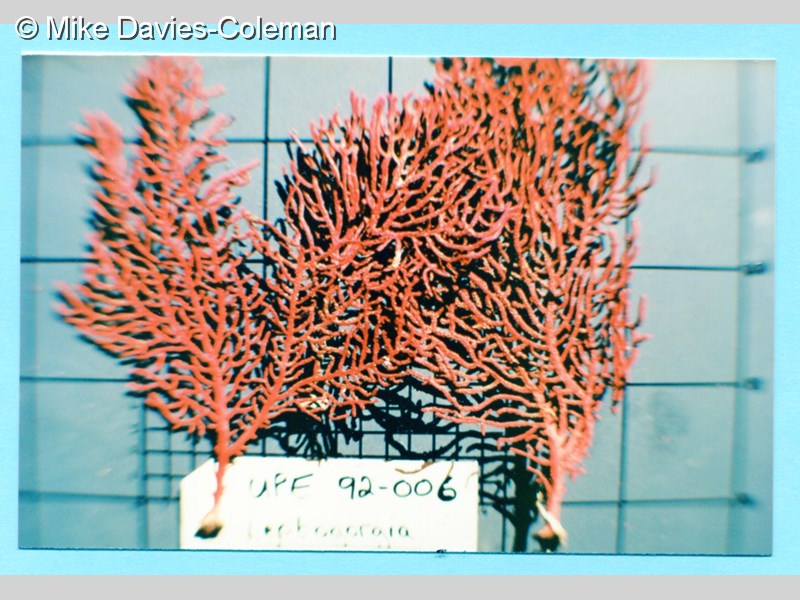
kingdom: Animalia
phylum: Cnidaria
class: Anthozoa
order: Malacalcyonacea
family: Gorgoniidae
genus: Leptogorgia
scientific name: Leptogorgia gilchristi
